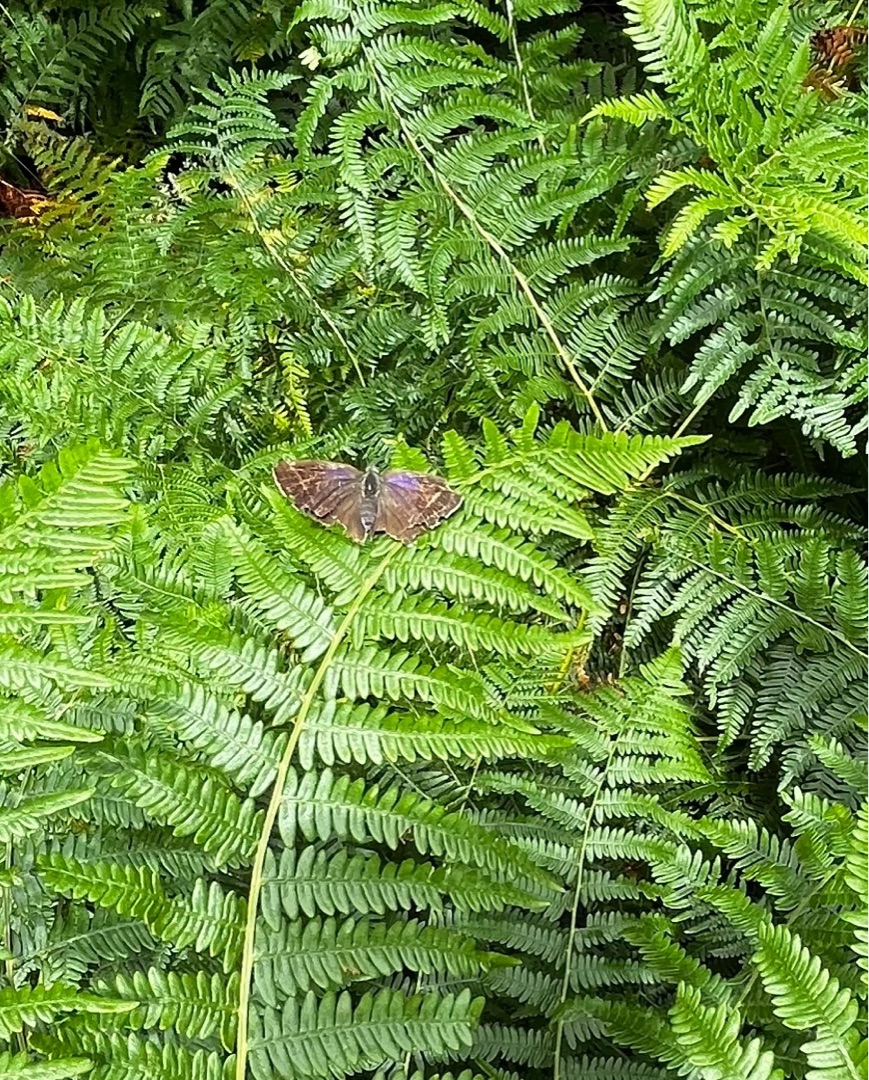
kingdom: Animalia
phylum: Arthropoda
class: Insecta
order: Lepidoptera
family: Lycaenidae
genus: Quercusia
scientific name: Quercusia quercus
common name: Blåhale
